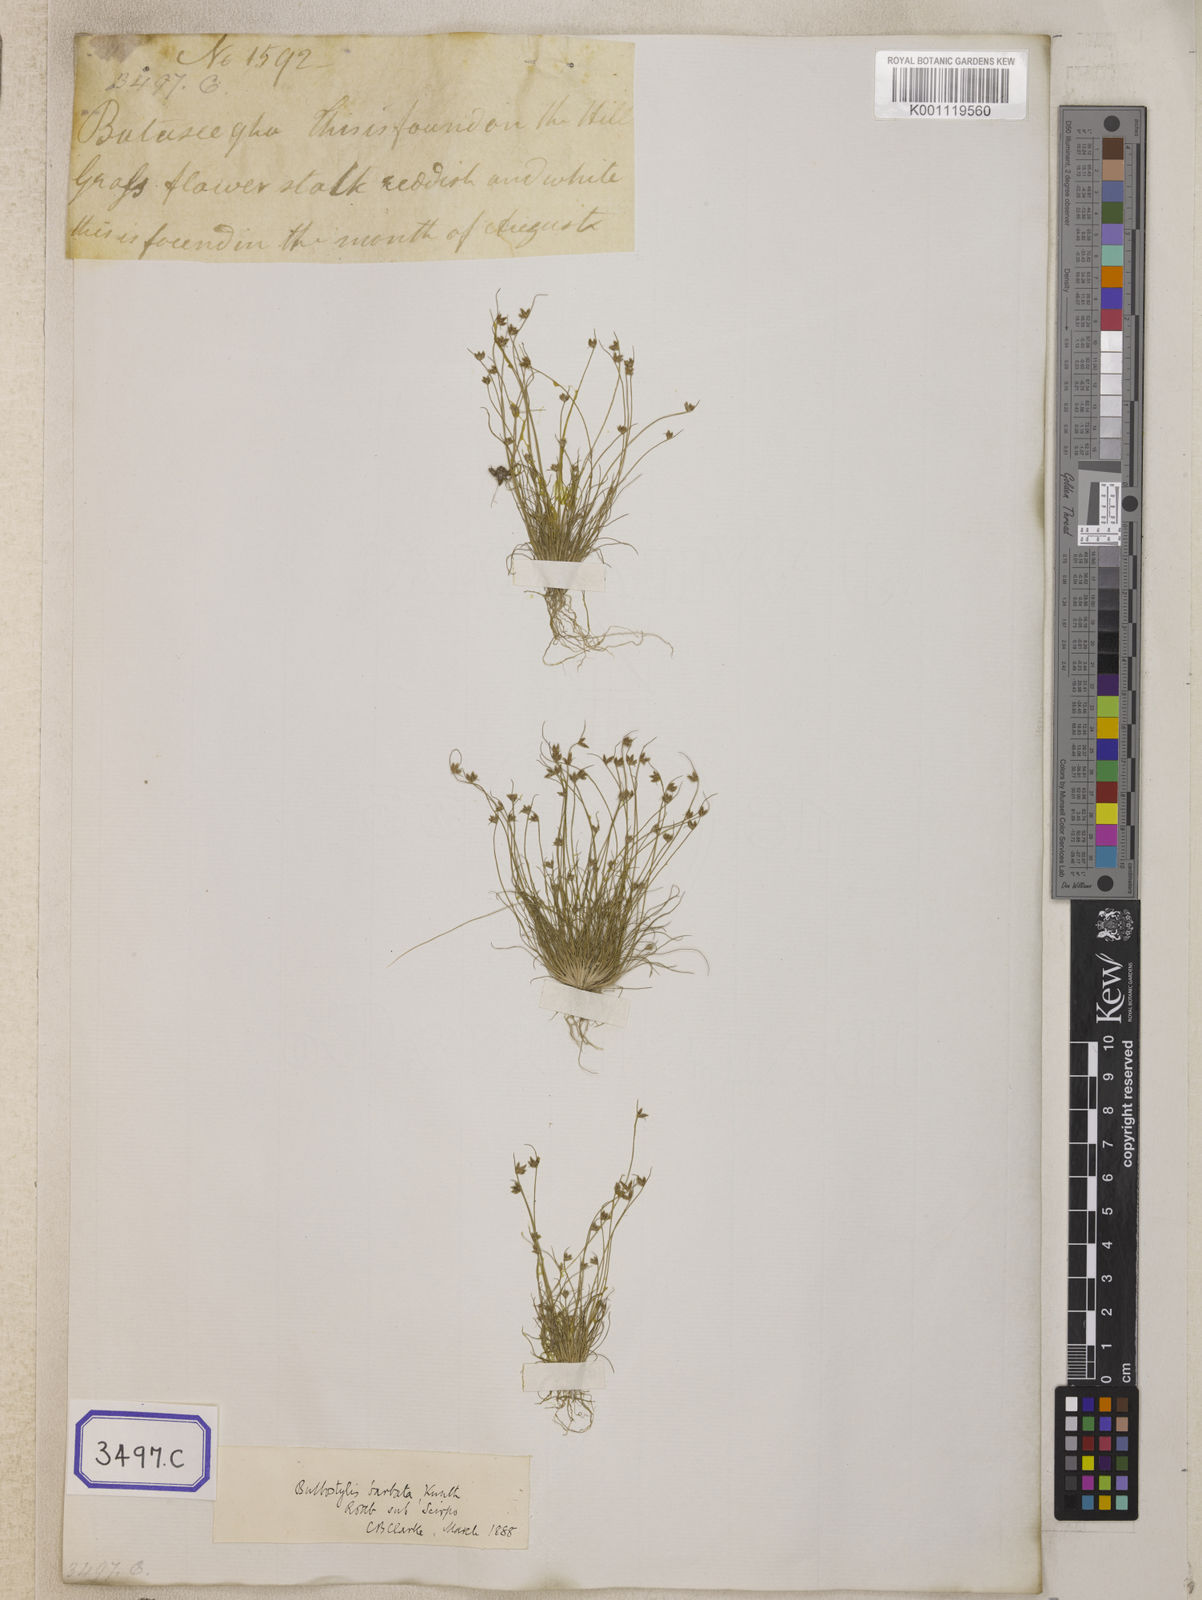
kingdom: Plantae
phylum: Tracheophyta
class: Liliopsida
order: Poales
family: Cyperaceae
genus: Isolepis
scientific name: Isolepis
